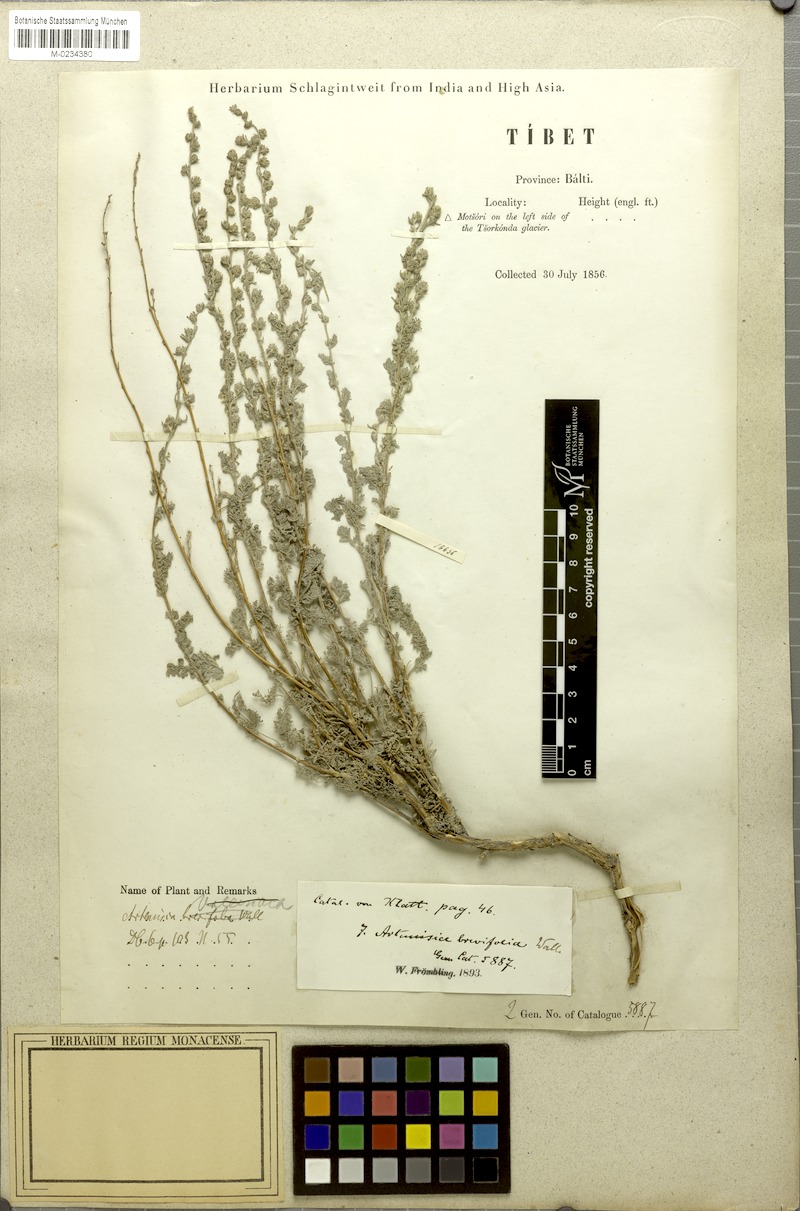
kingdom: Plantae
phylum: Tracheophyta
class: Magnoliopsida
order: Asterales
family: Asteraceae
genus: Artemisia
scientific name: Artemisia brevifolia
